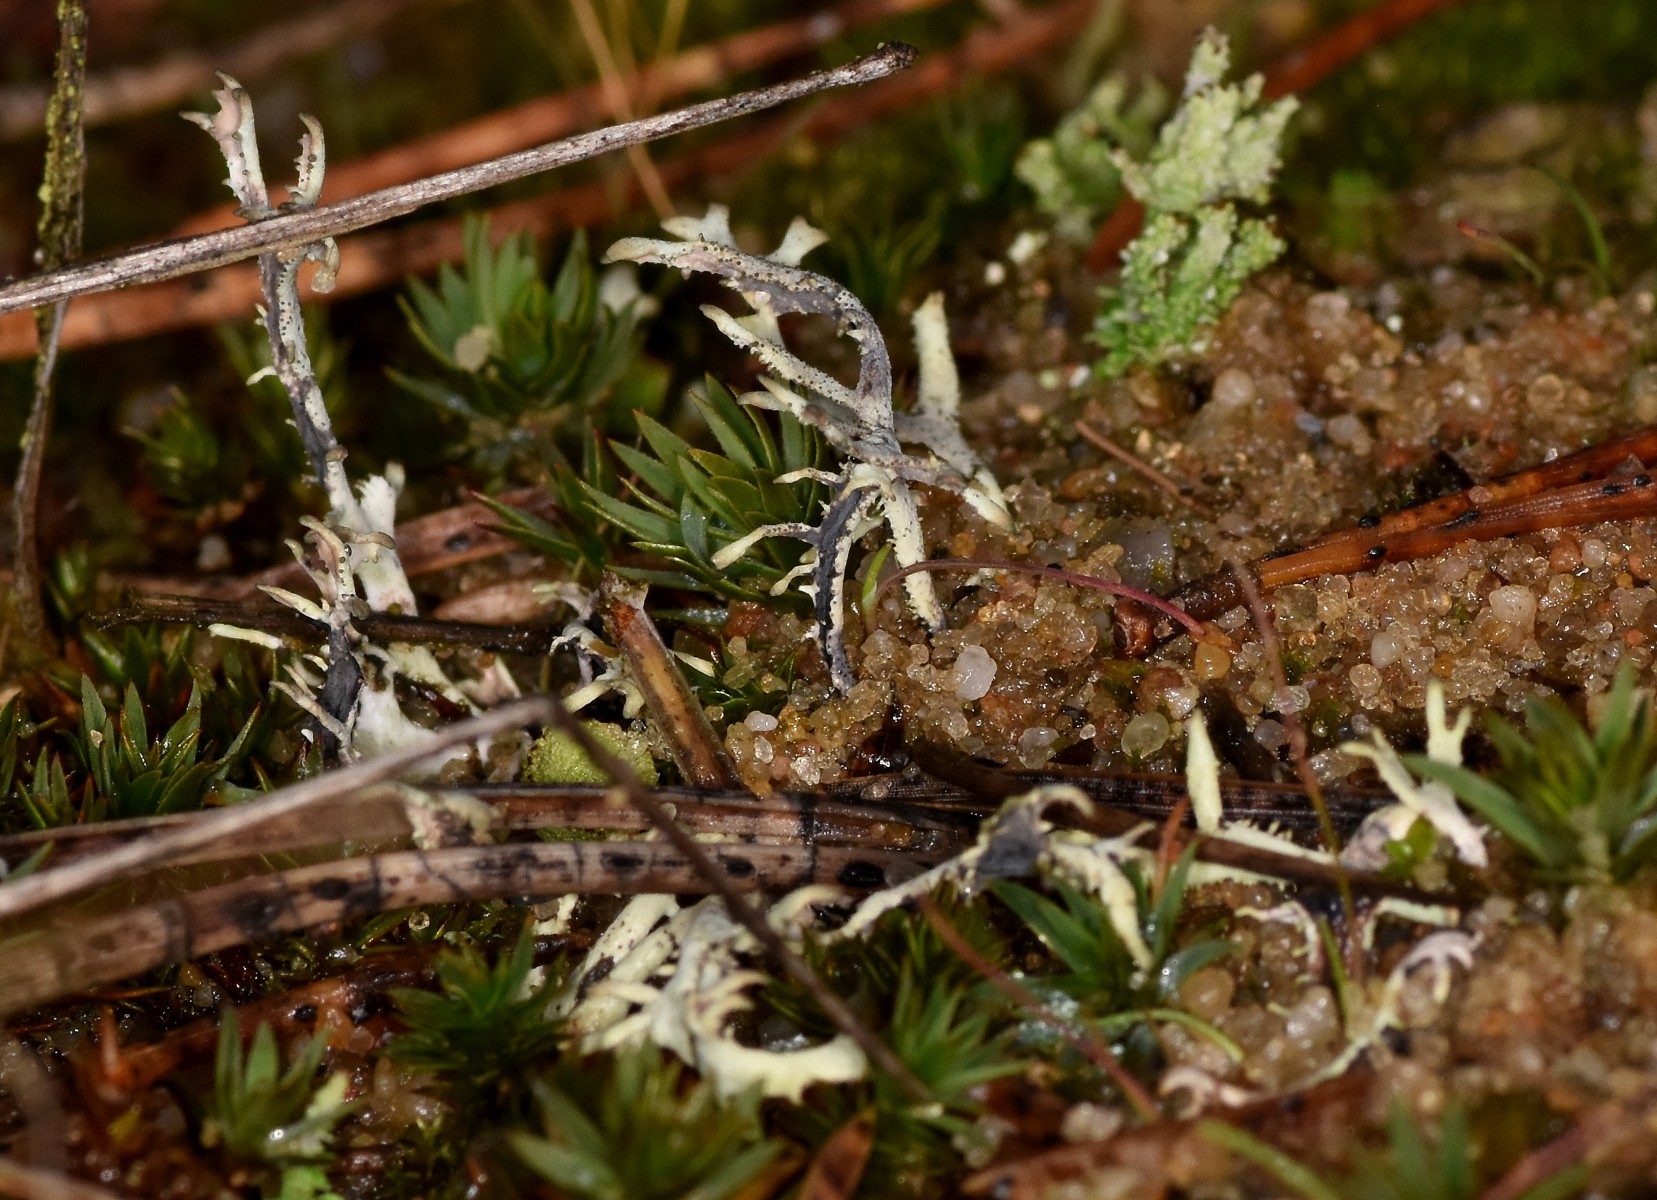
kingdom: Fungi
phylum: Ascomycota
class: Lecanoromycetes
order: Lecanorales
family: Parmeliaceae
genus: Pseudevernia
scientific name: Pseudevernia furfuracea
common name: grå fyrrelav
